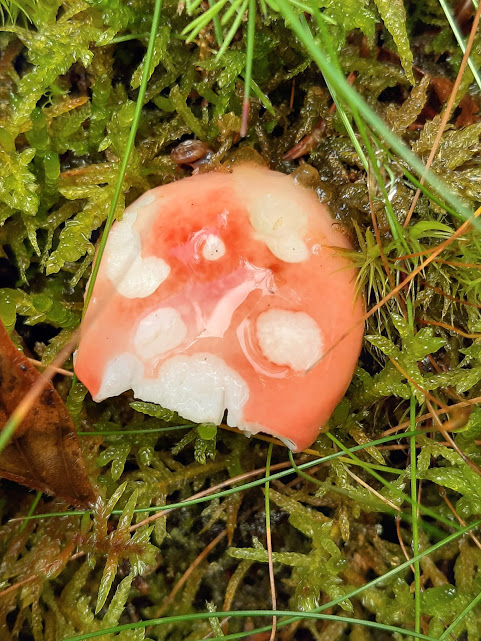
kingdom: Fungi
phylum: Basidiomycota
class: Agaricomycetes
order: Russulales
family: Russulaceae
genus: Russula
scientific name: Russula
